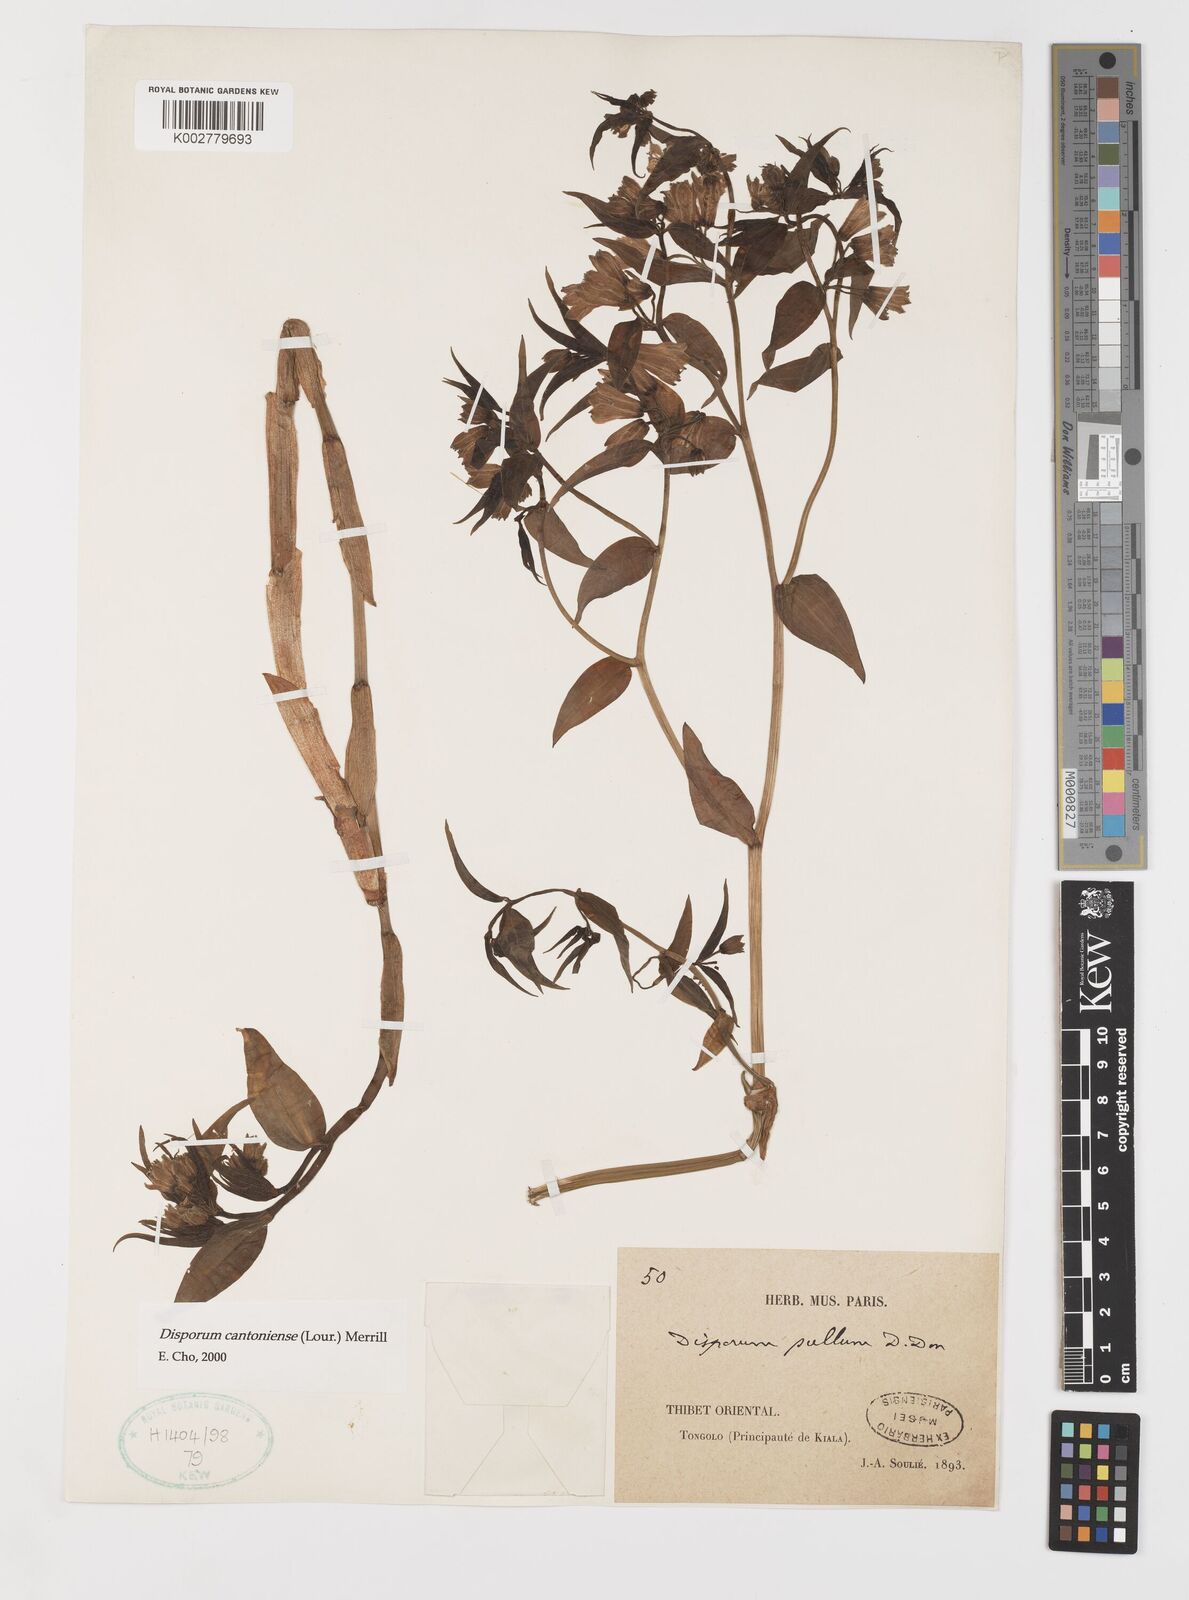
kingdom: Plantae
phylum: Tracheophyta
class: Liliopsida
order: Liliales
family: Colchicaceae
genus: Disporum
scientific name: Disporum cantoniense
